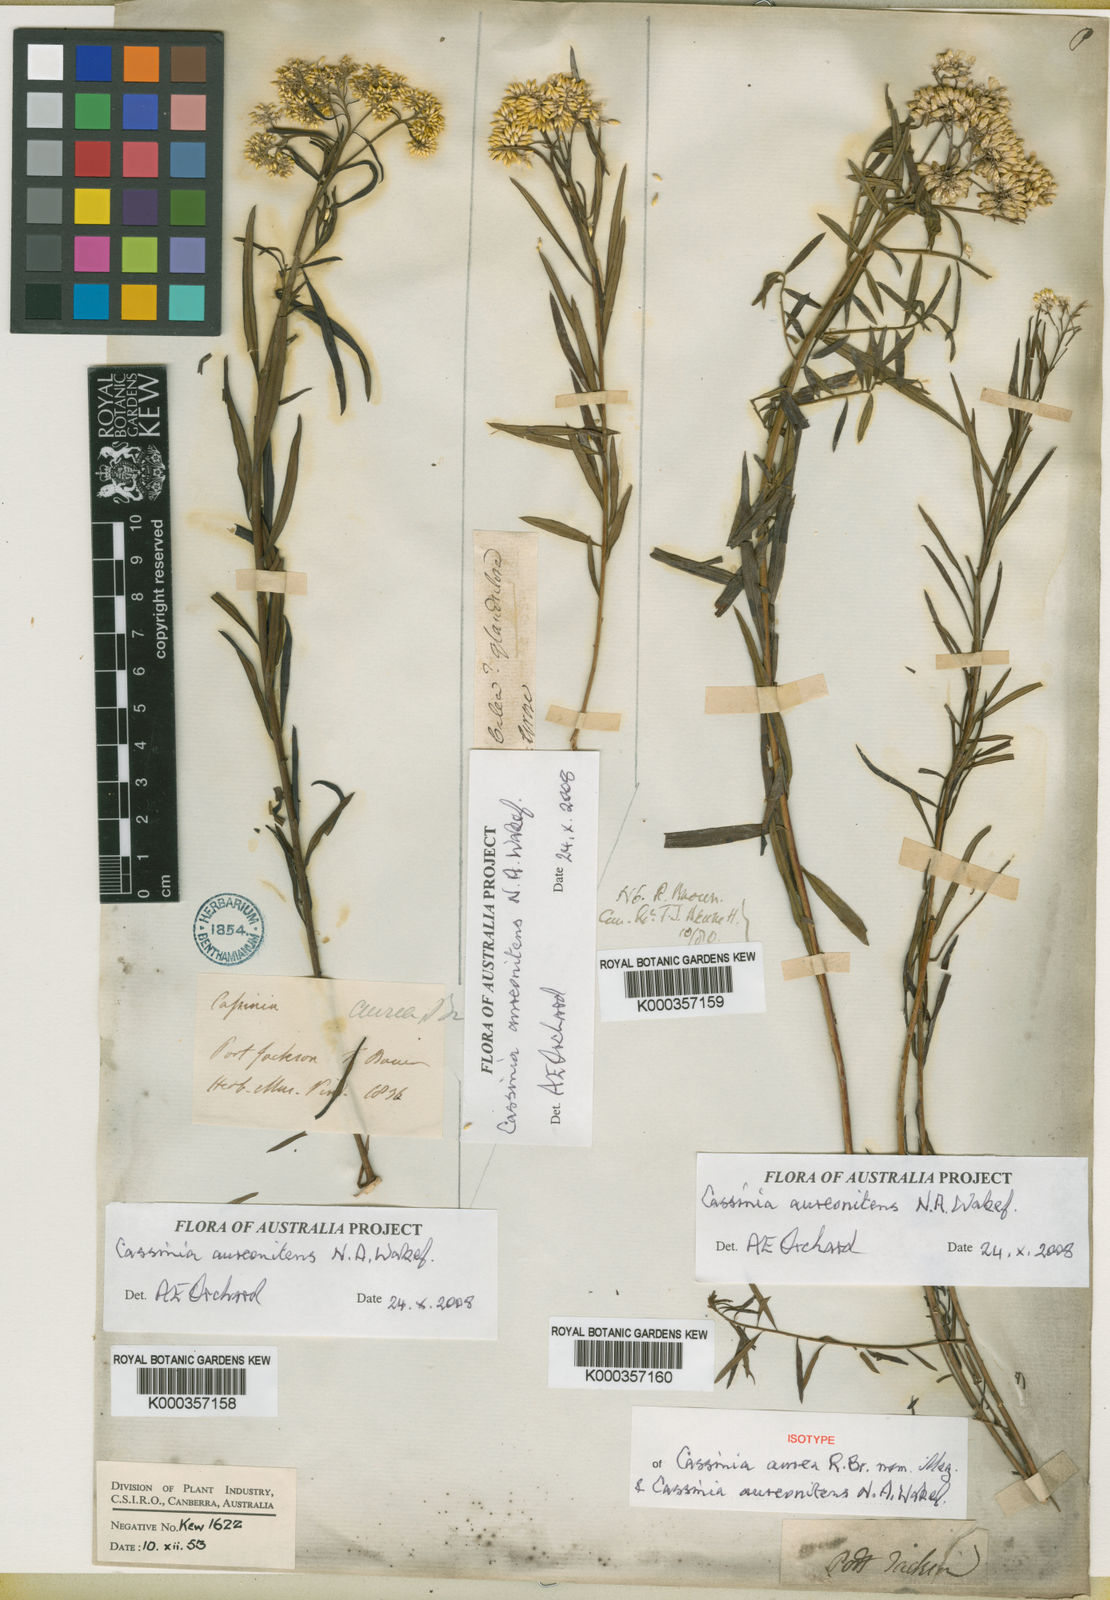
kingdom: Plantae
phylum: Tracheophyta
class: Magnoliopsida
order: Asterales
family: Asteraceae
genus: Cassinia
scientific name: Cassinia aureonitens
